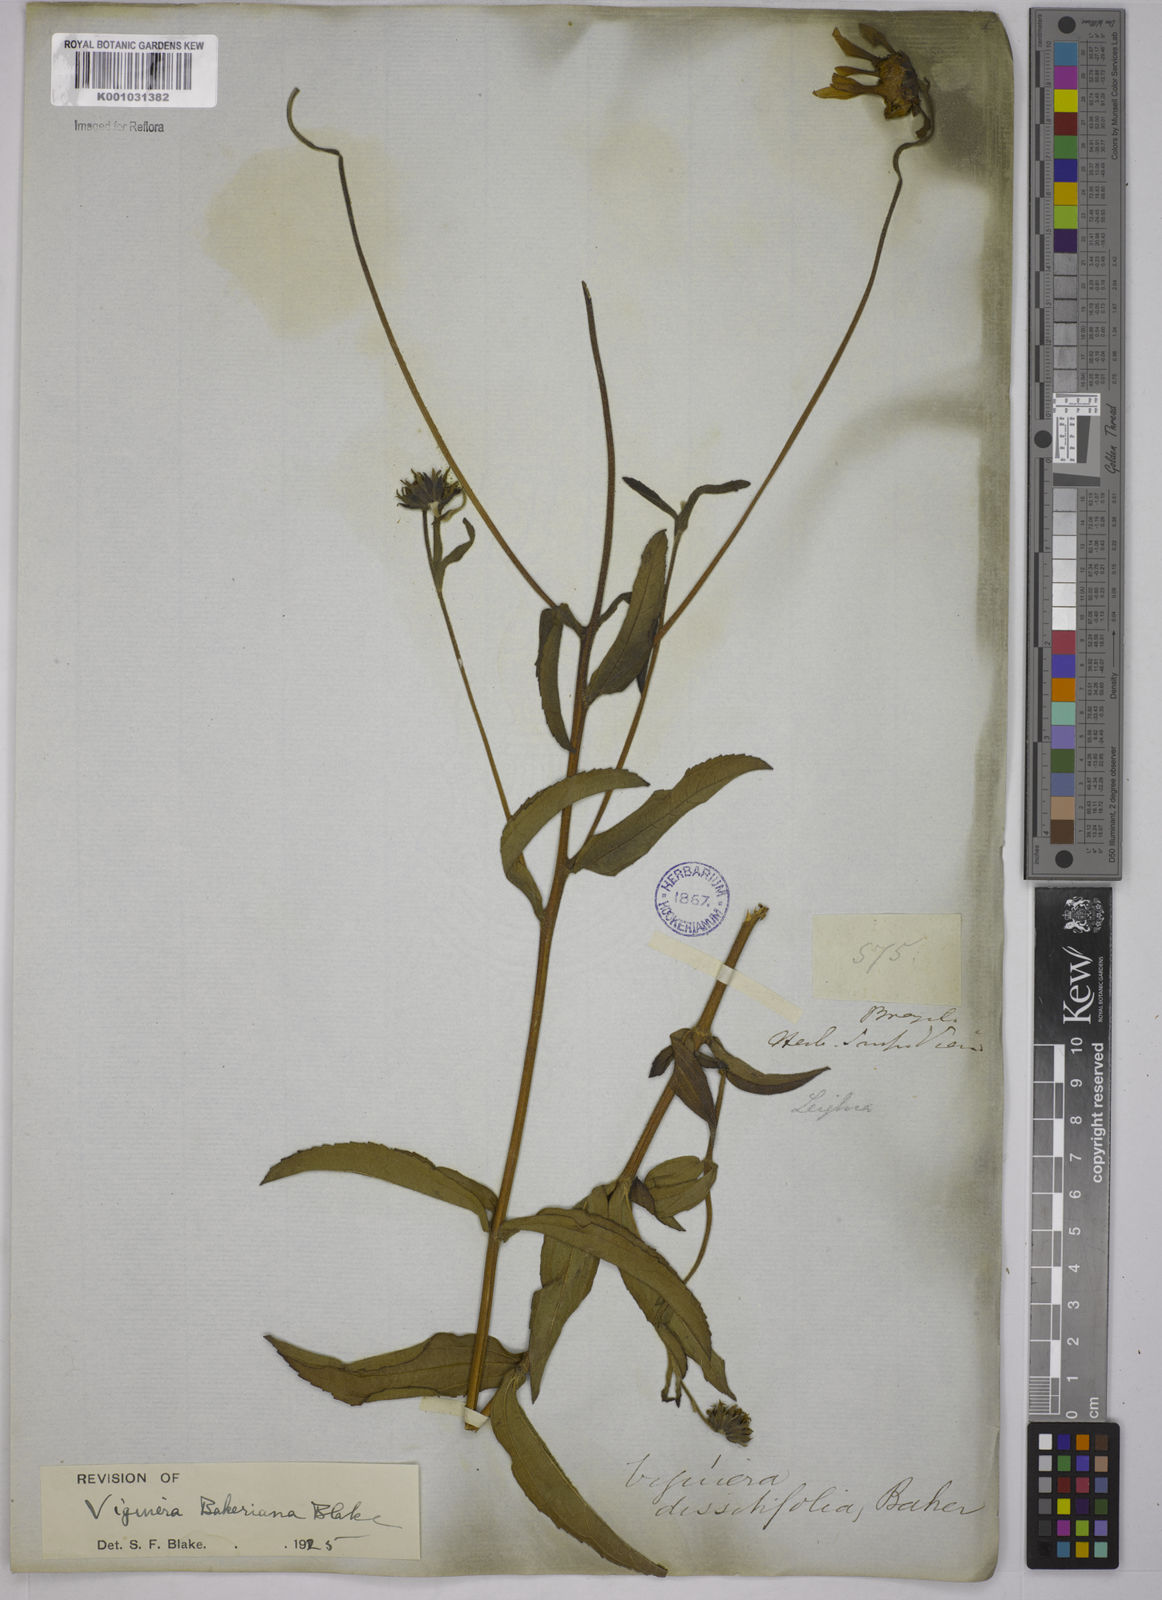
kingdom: Plantae
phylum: Tracheophyta
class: Magnoliopsida
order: Asterales
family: Asteraceae
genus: Aldama
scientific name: Aldama bakeriana
